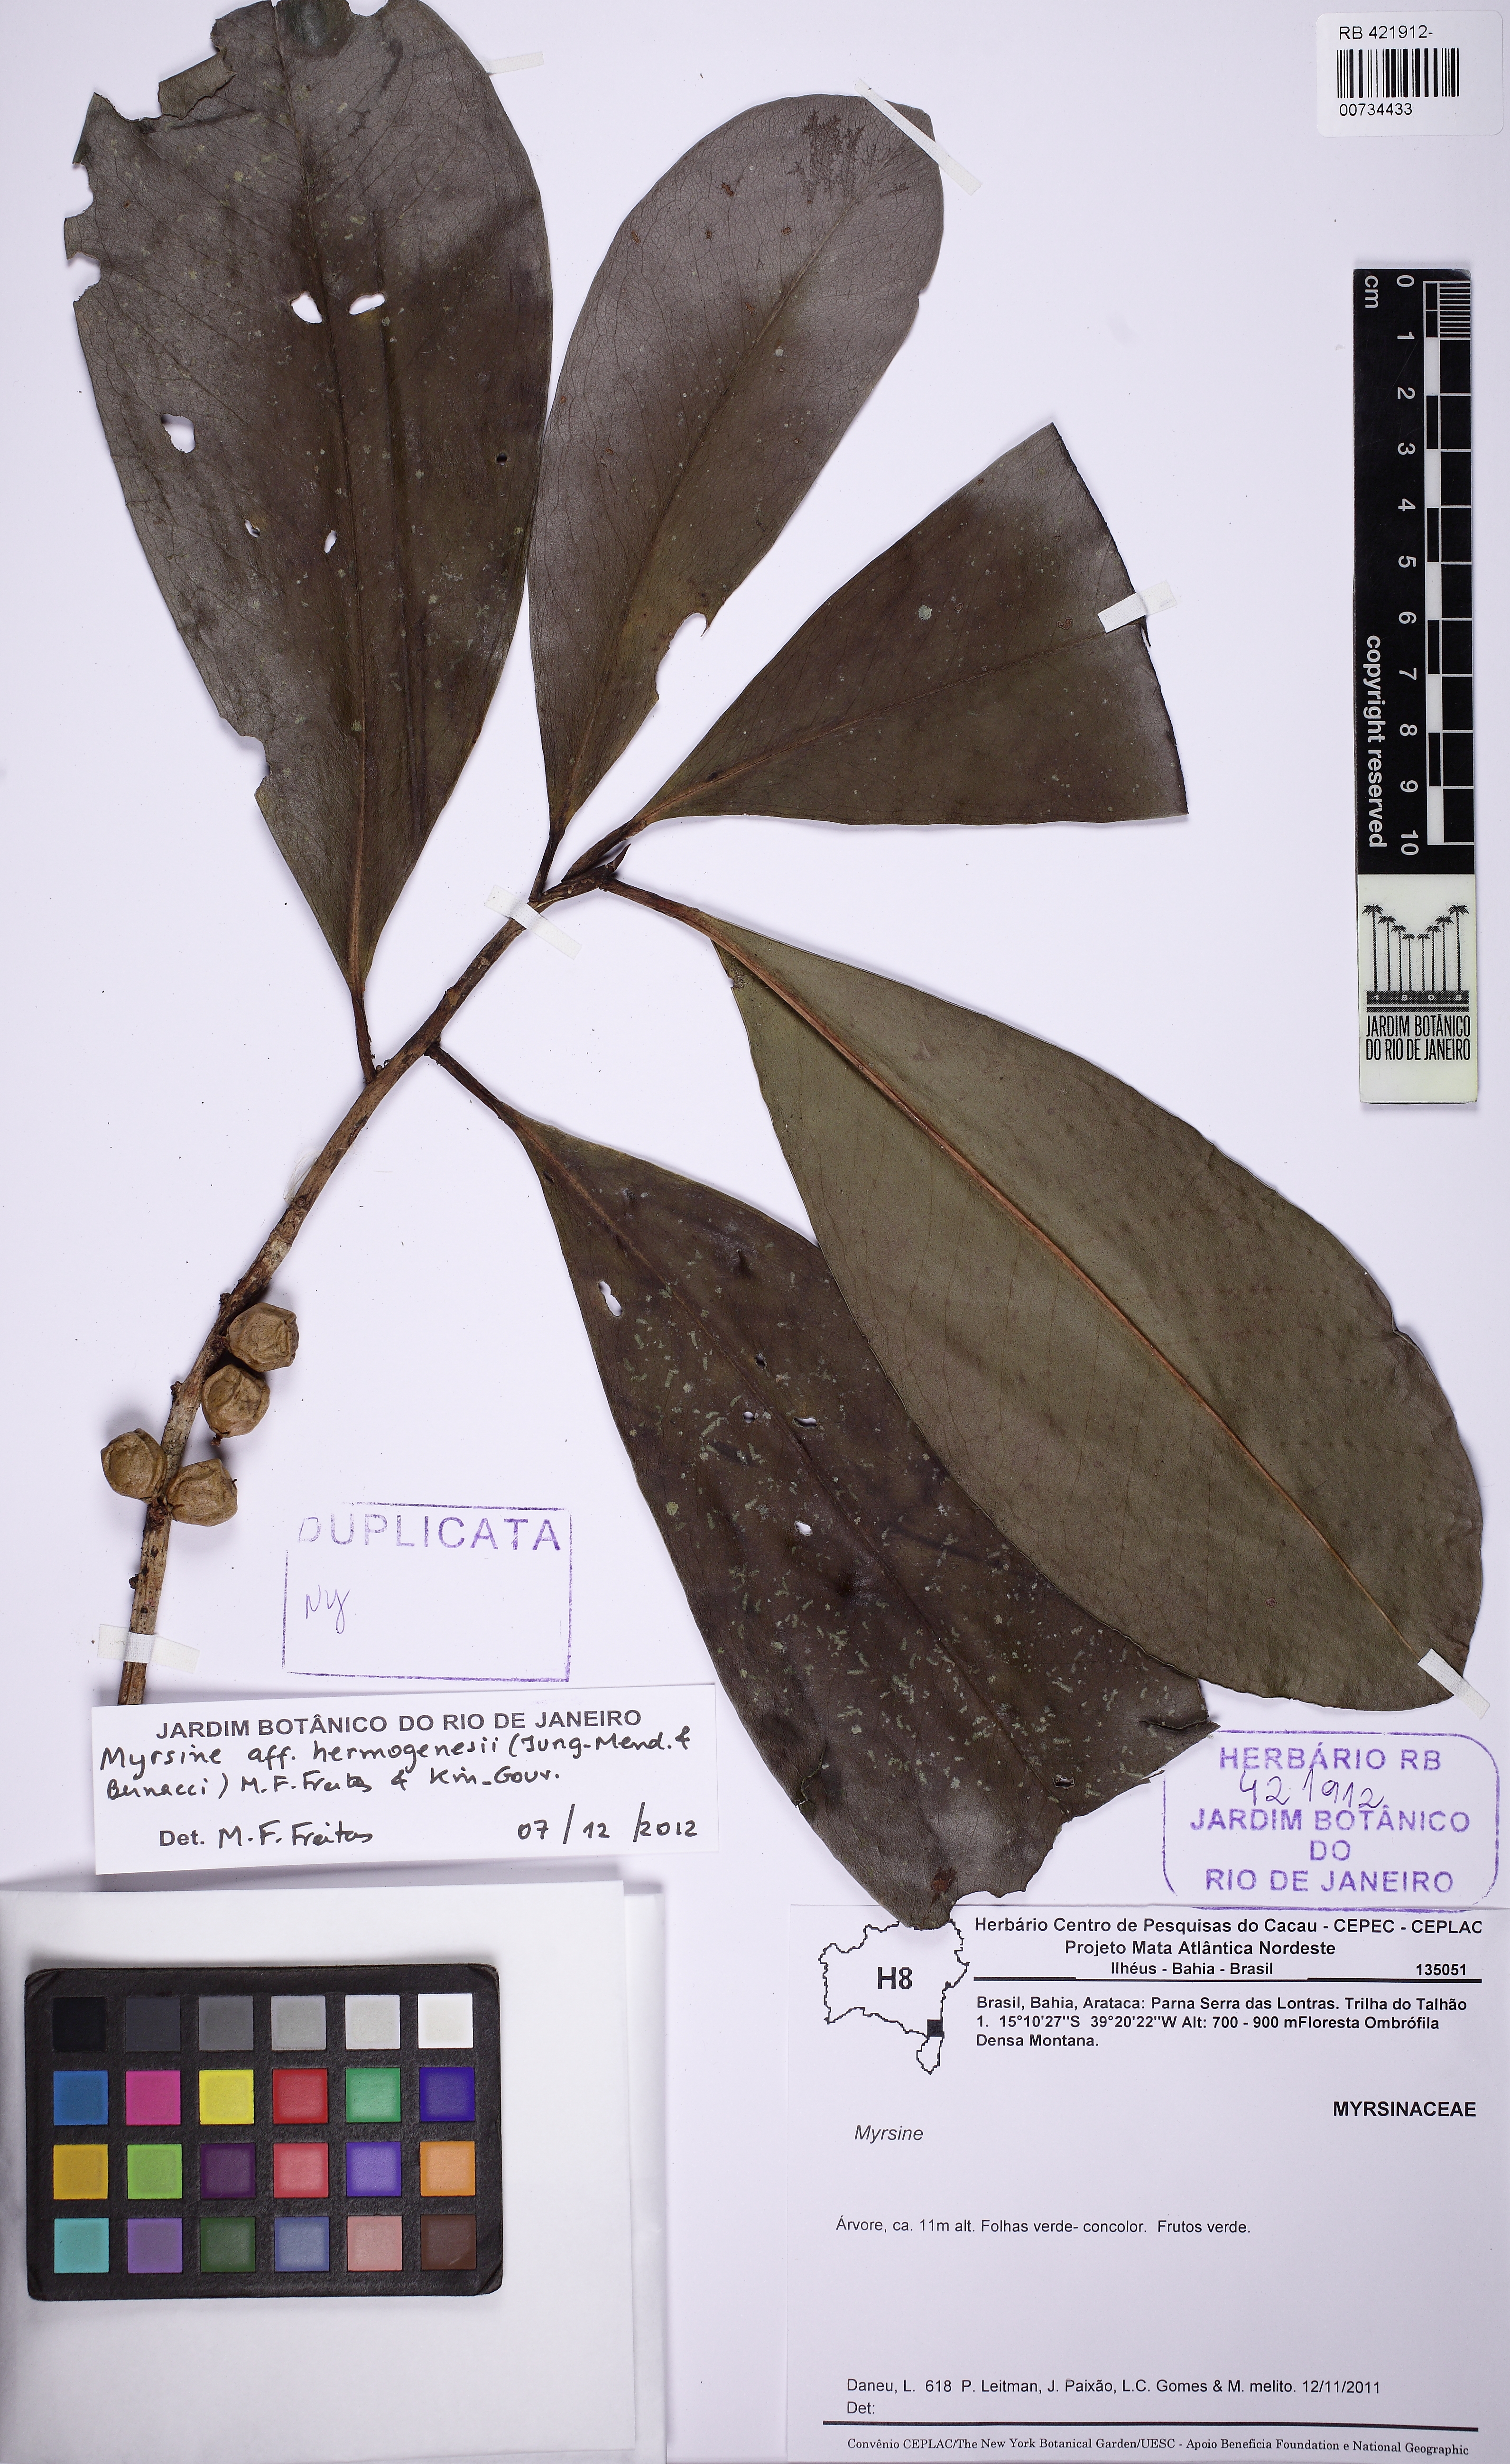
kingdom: Plantae
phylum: Tracheophyta
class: Magnoliopsida
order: Ericales
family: Primulaceae
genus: Myrsine
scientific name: Myrsine hermogenesii
